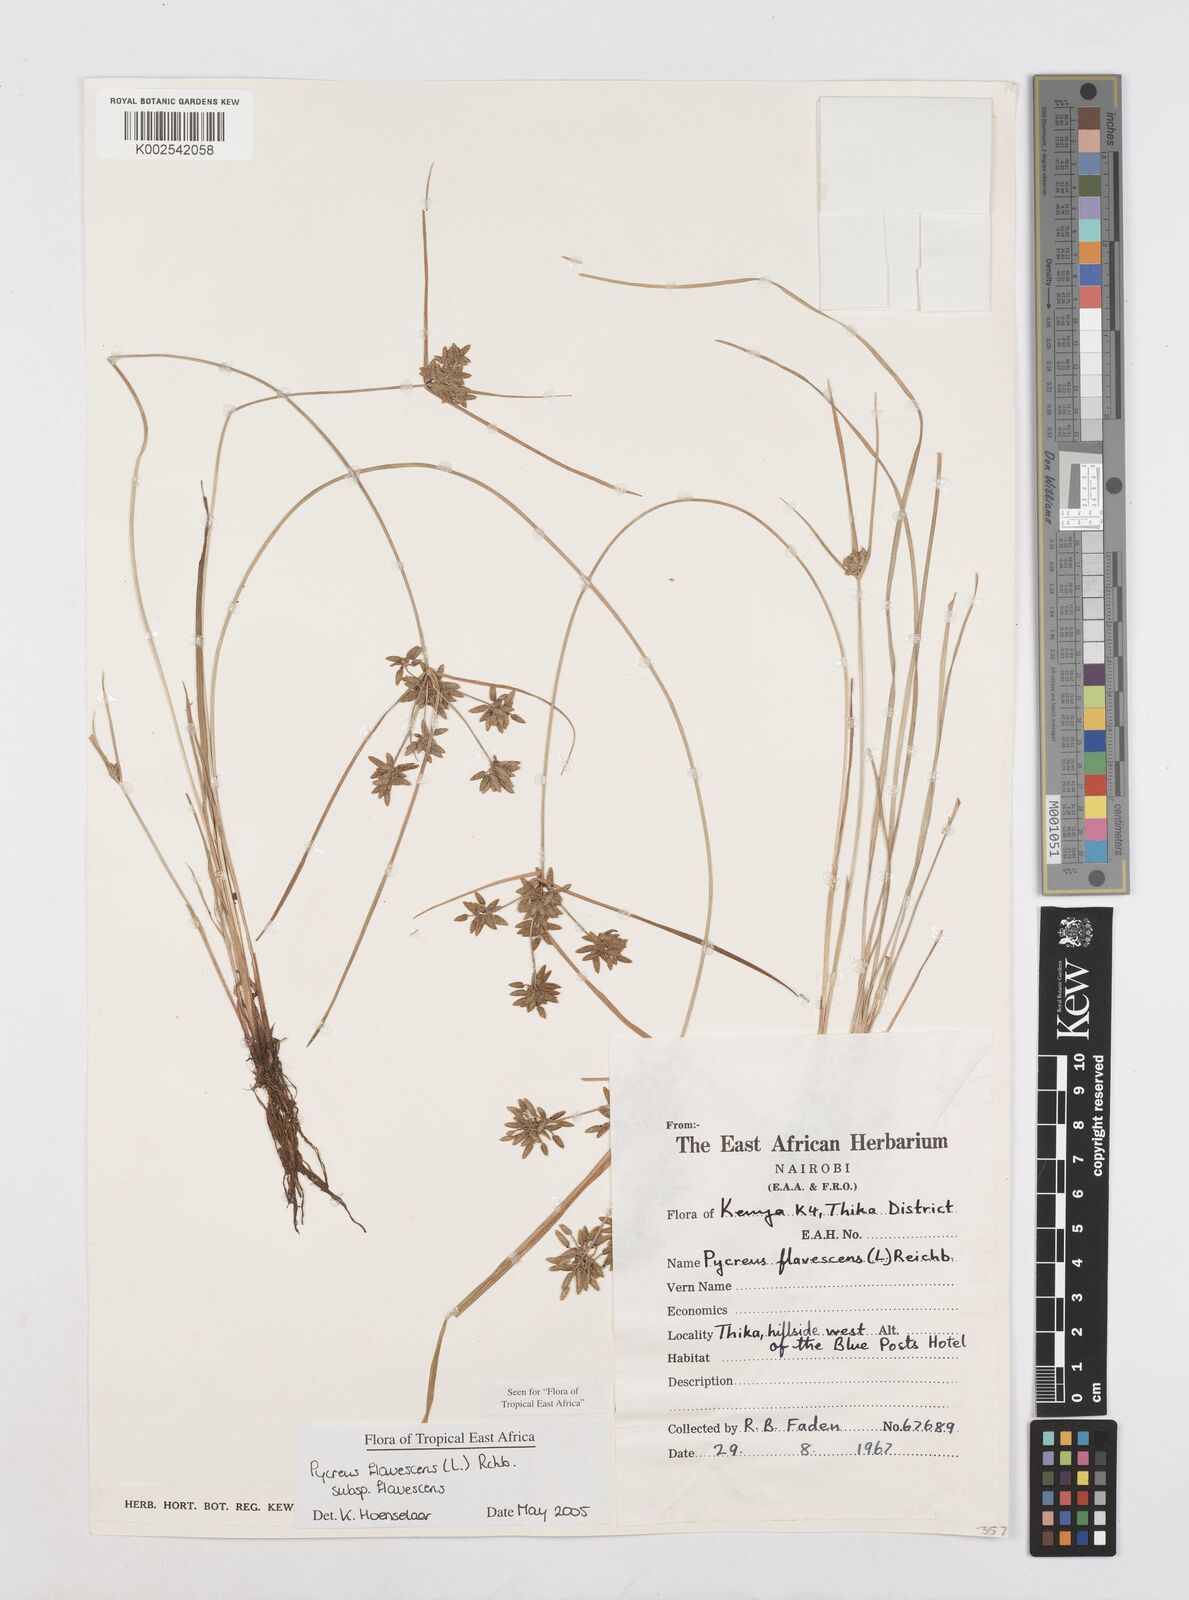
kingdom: Plantae
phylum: Tracheophyta
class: Liliopsida
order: Poales
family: Cyperaceae
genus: Cyperus
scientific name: Cyperus flavescens
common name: Yellow galingale
